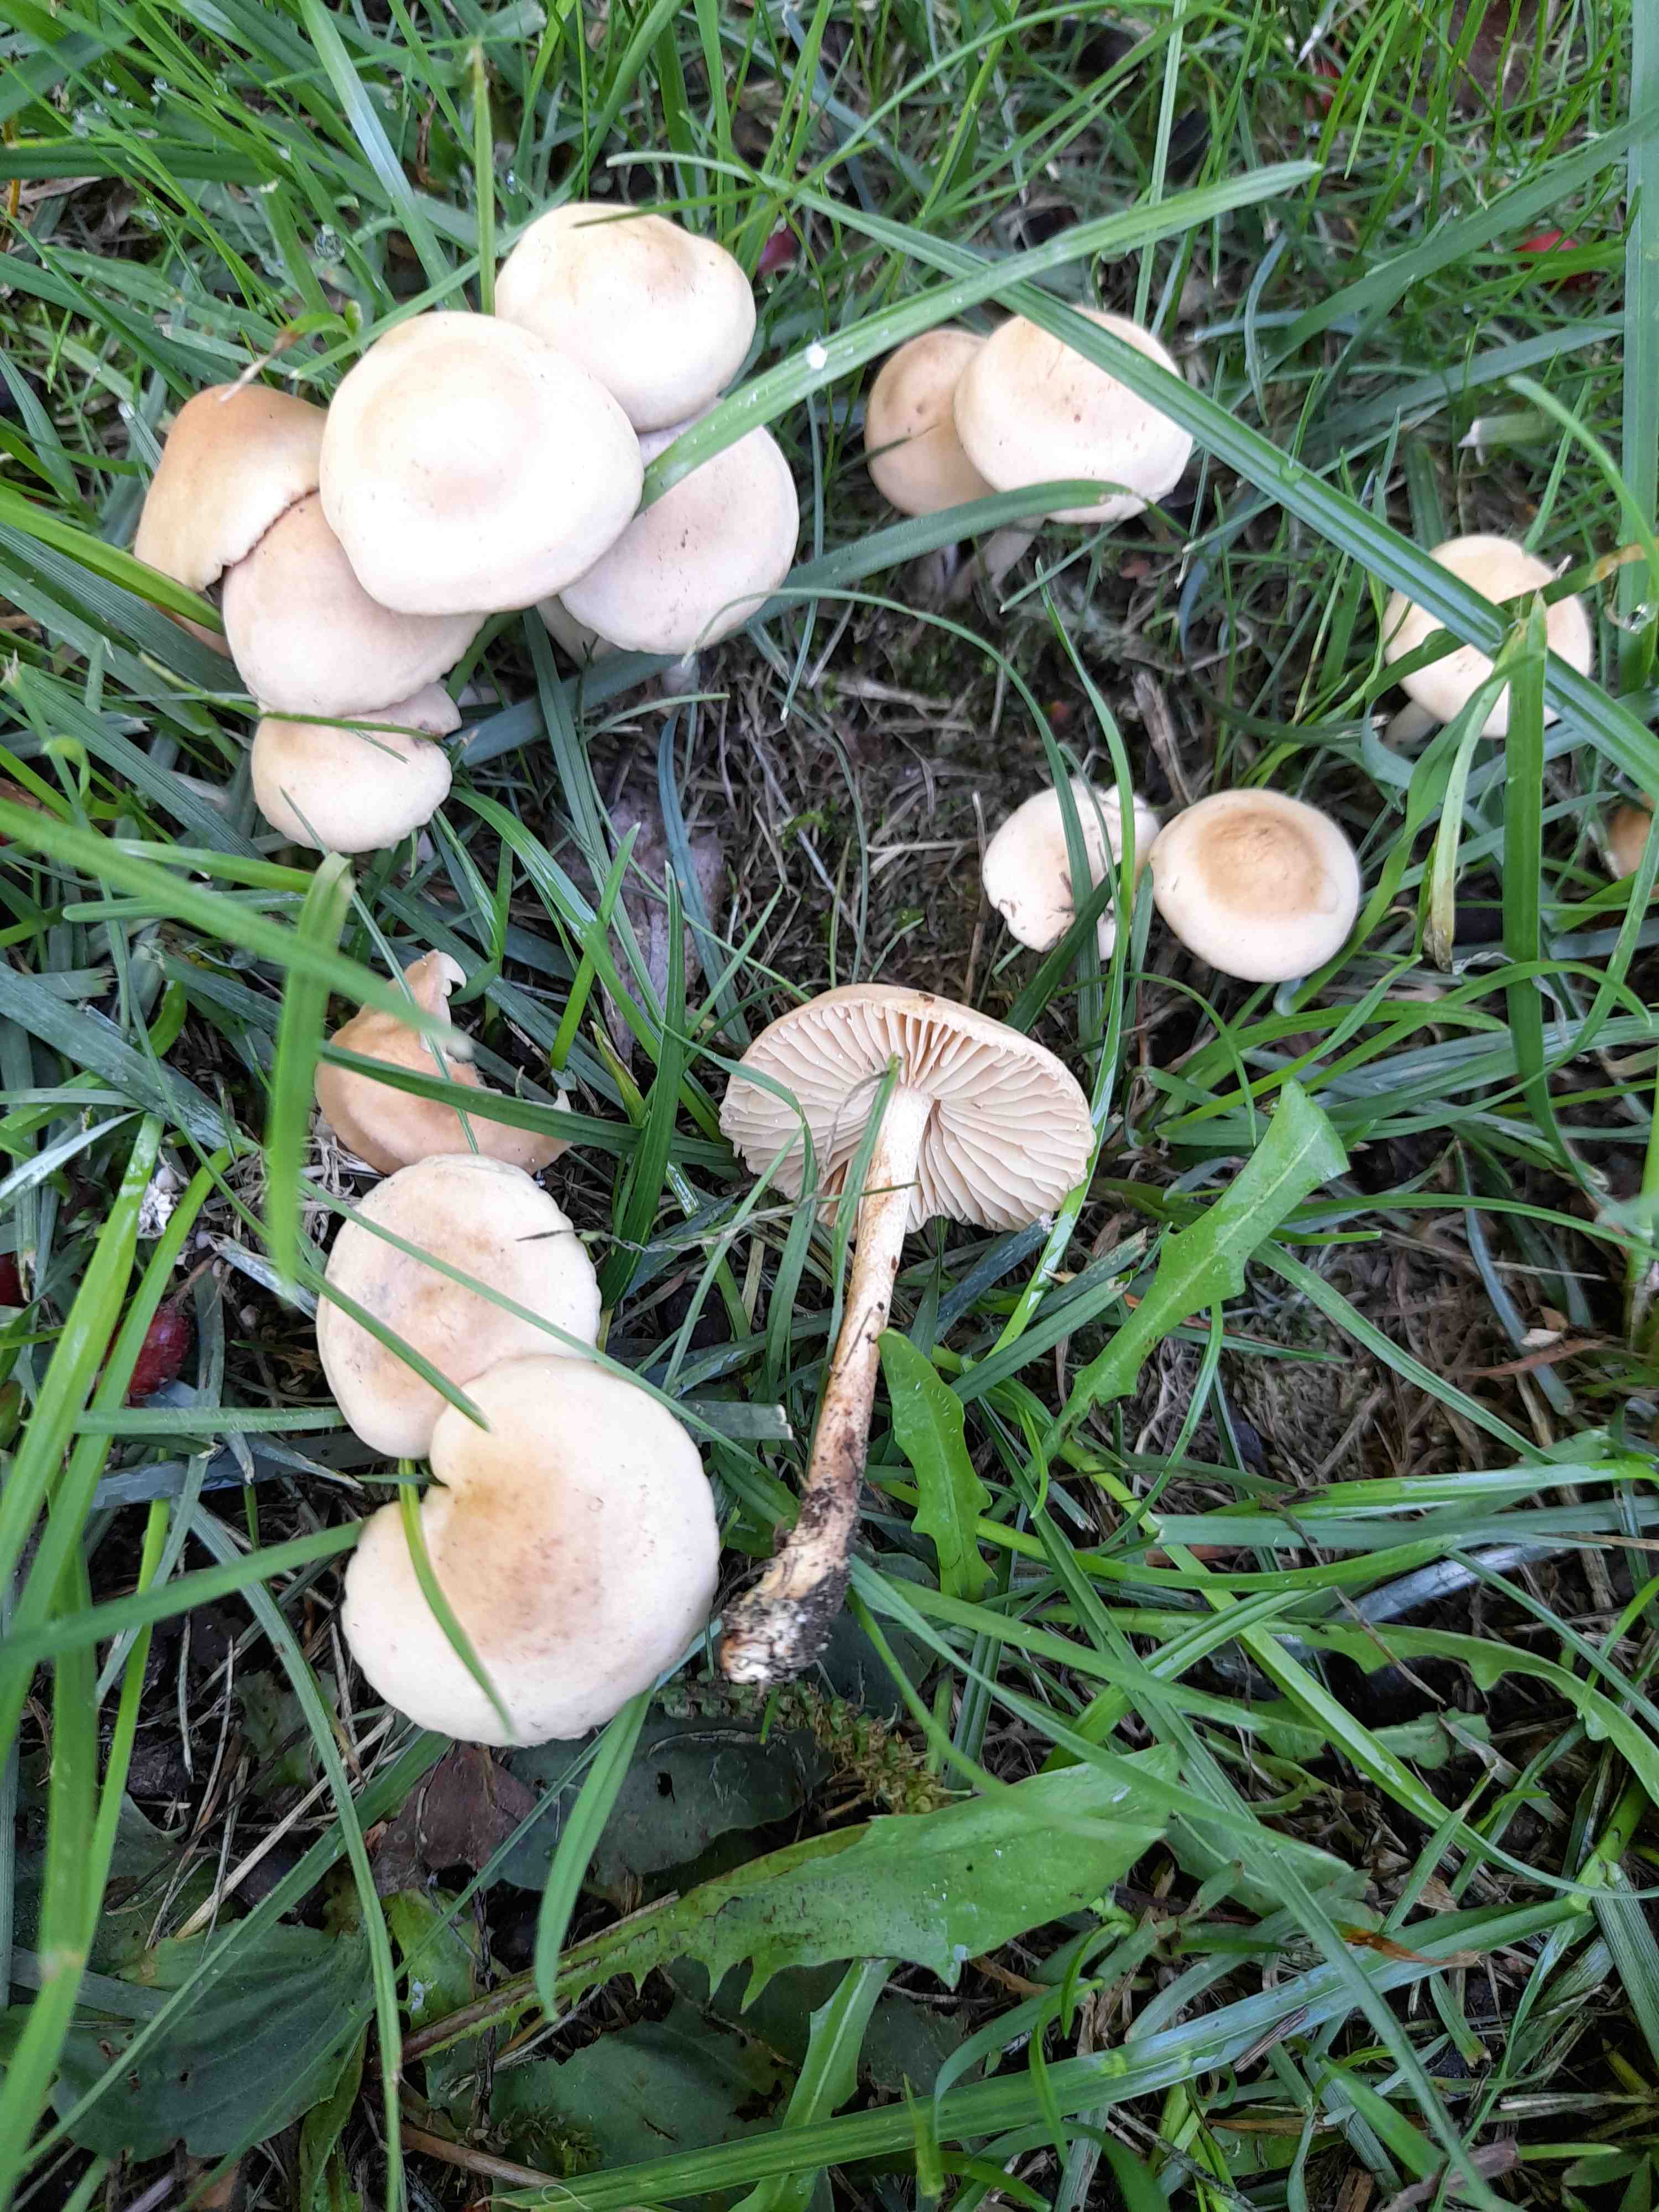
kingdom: Fungi
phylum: Basidiomycota
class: Agaricomycetes
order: Agaricales
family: Marasmiaceae
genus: Marasmius
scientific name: Marasmius oreades
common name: elledans-bruskhat
